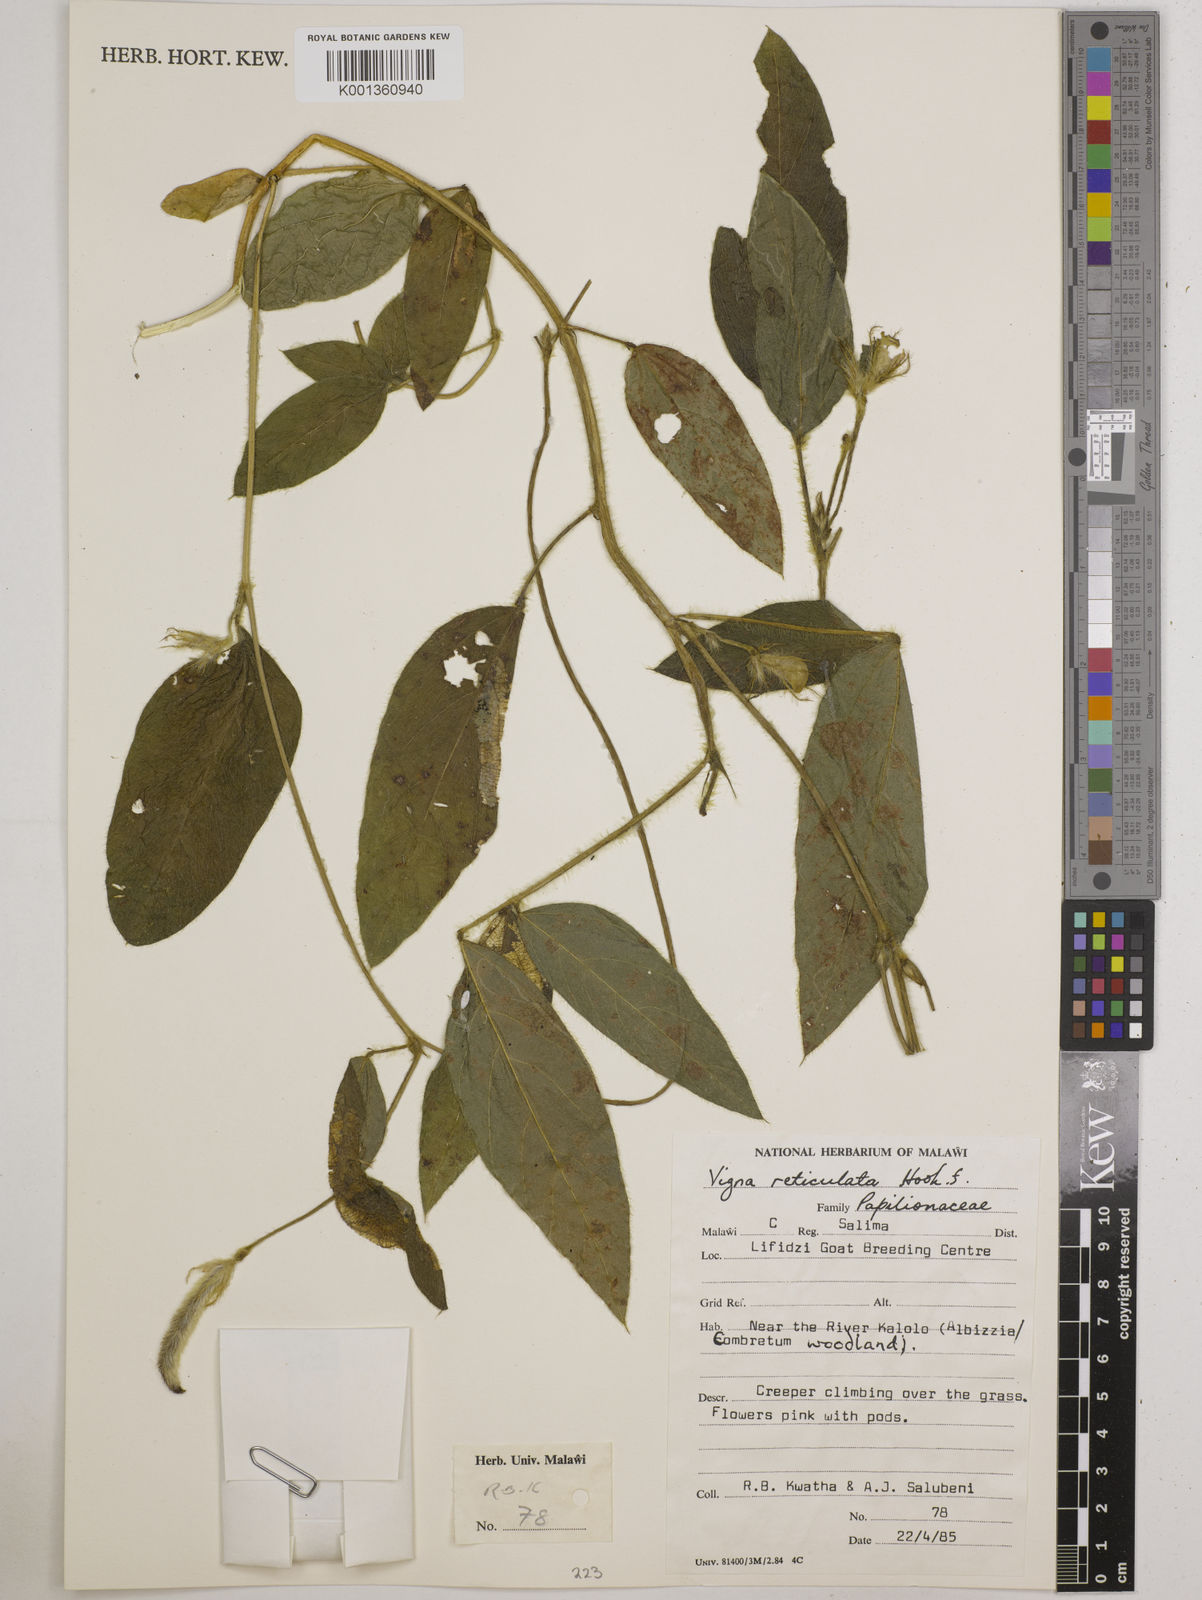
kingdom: Plantae
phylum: Tracheophyta
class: Magnoliopsida
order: Fabales
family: Fabaceae
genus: Vigna
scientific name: Vigna reticulata
